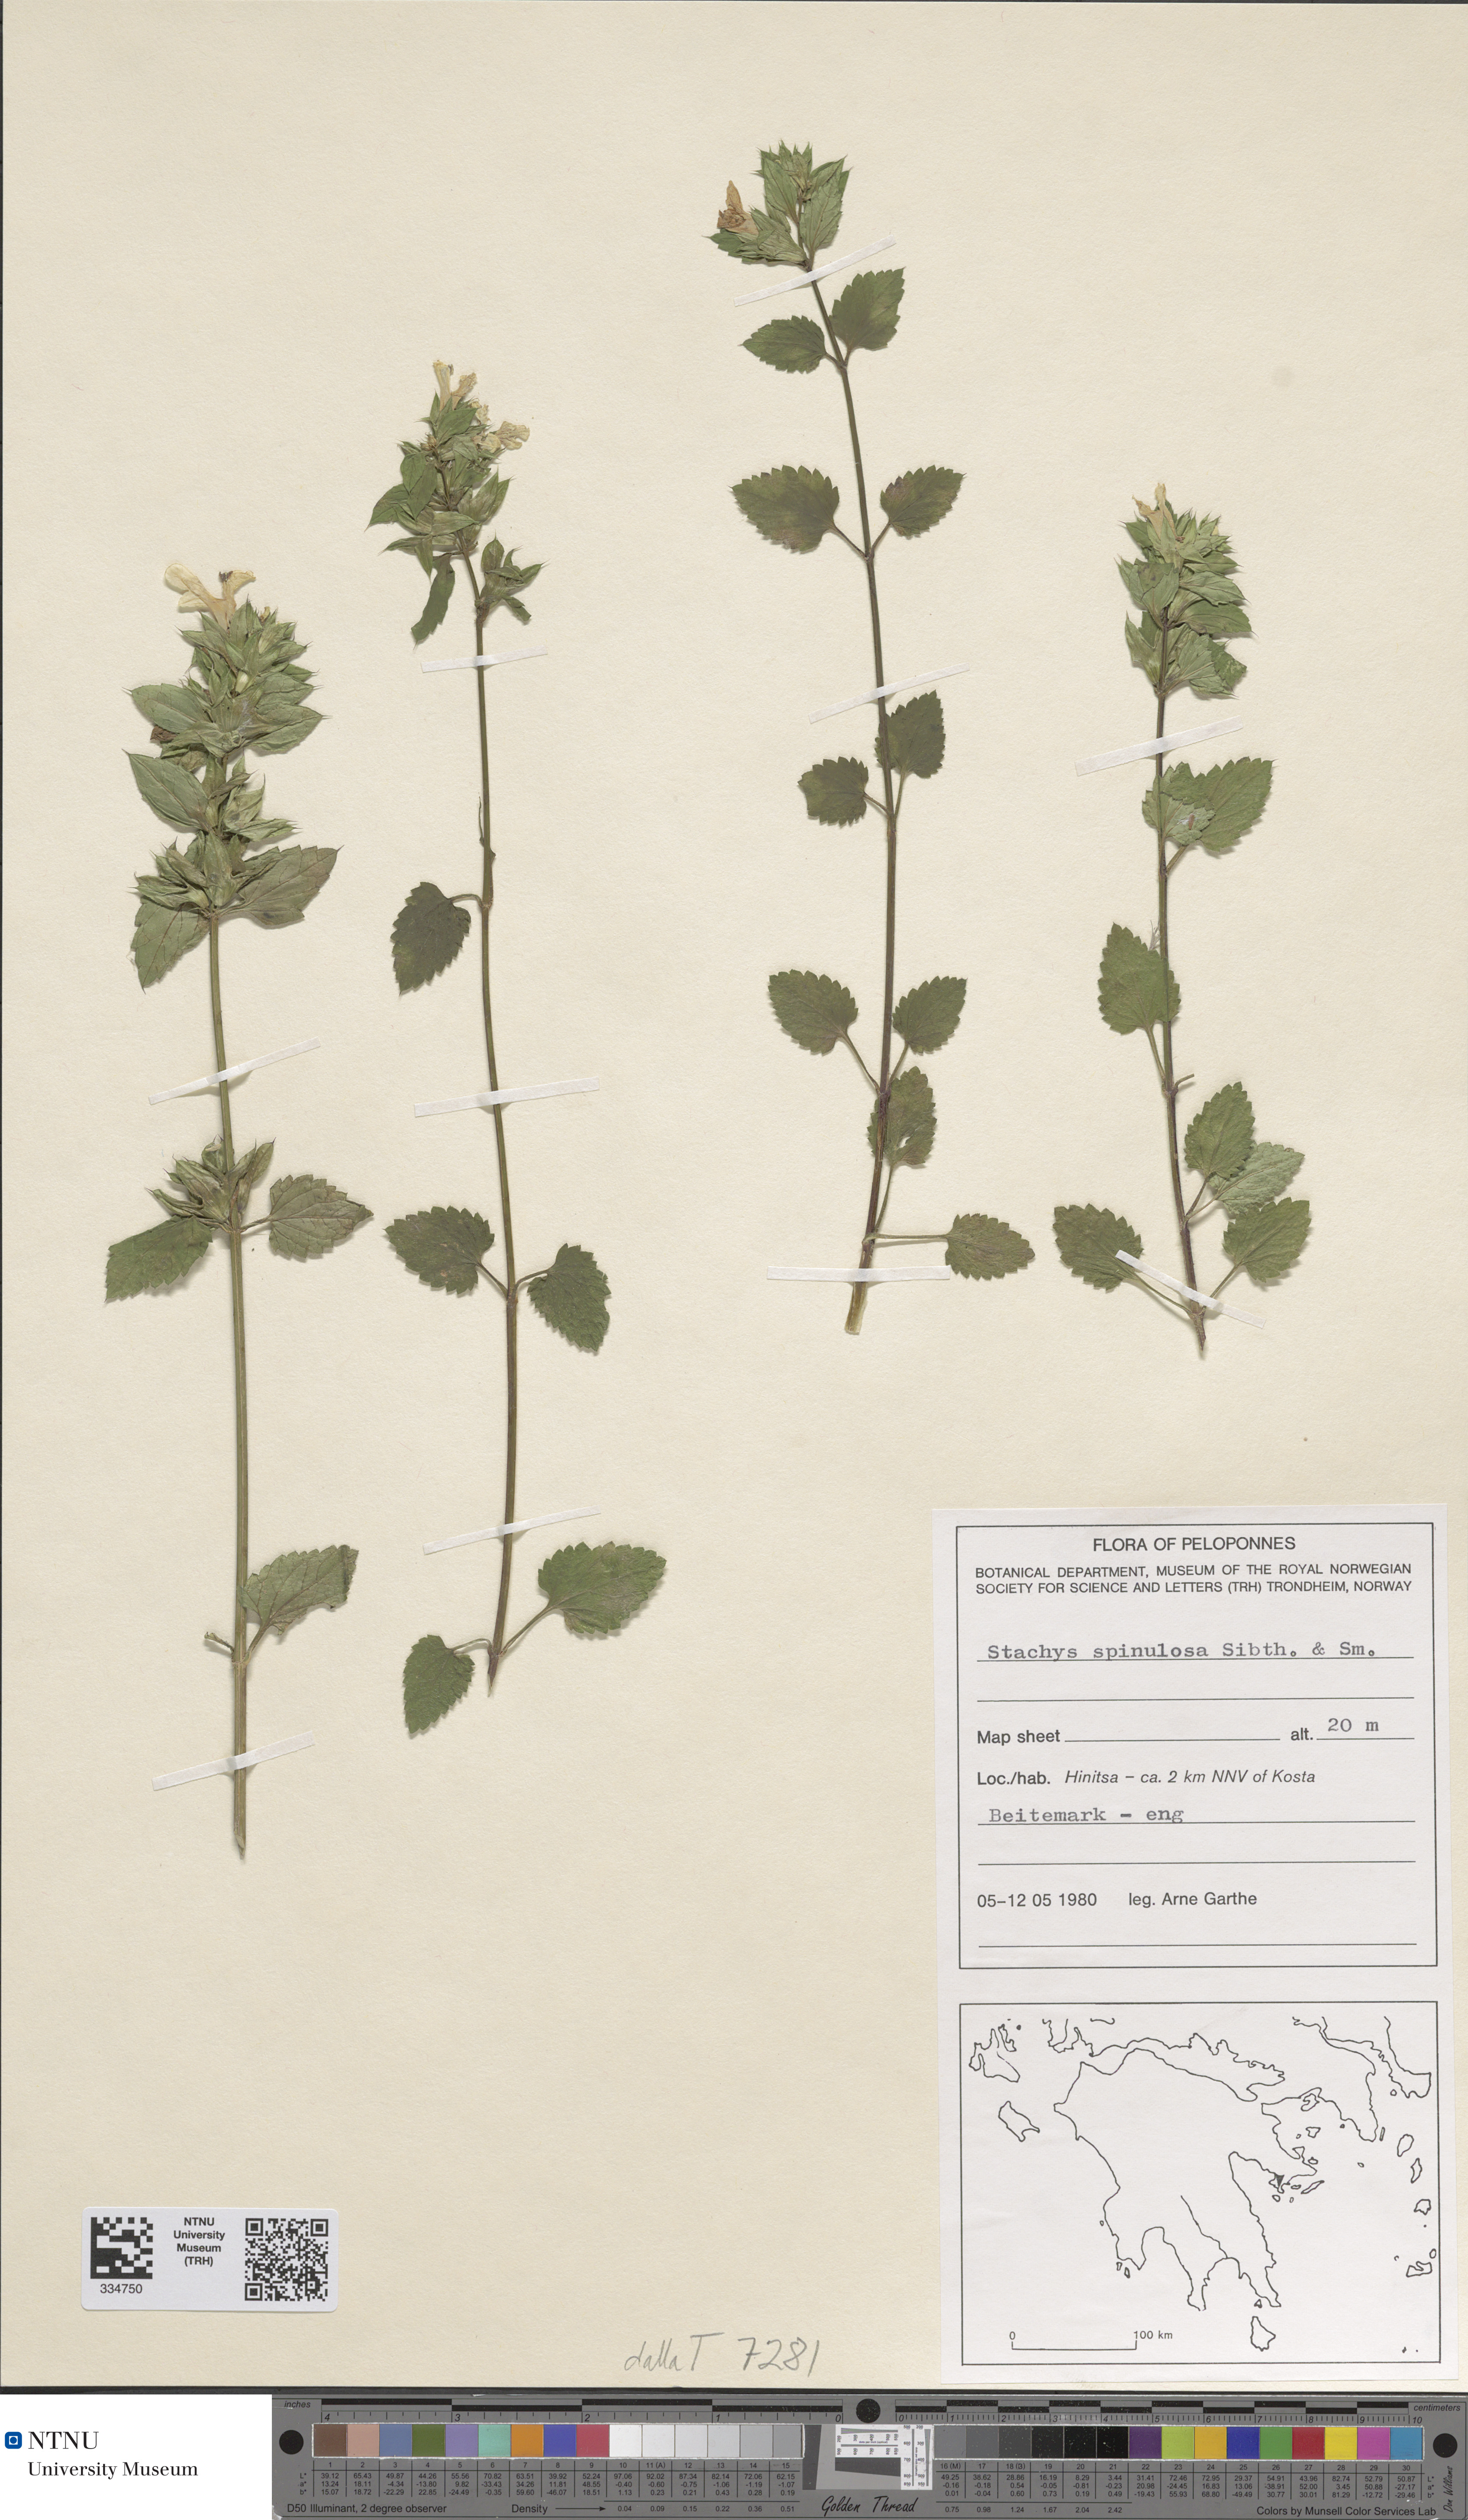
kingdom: Plantae
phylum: Tracheophyta
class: Magnoliopsida
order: Lamiales
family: Lamiaceae
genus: Stachys
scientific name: Stachys spinulosa
